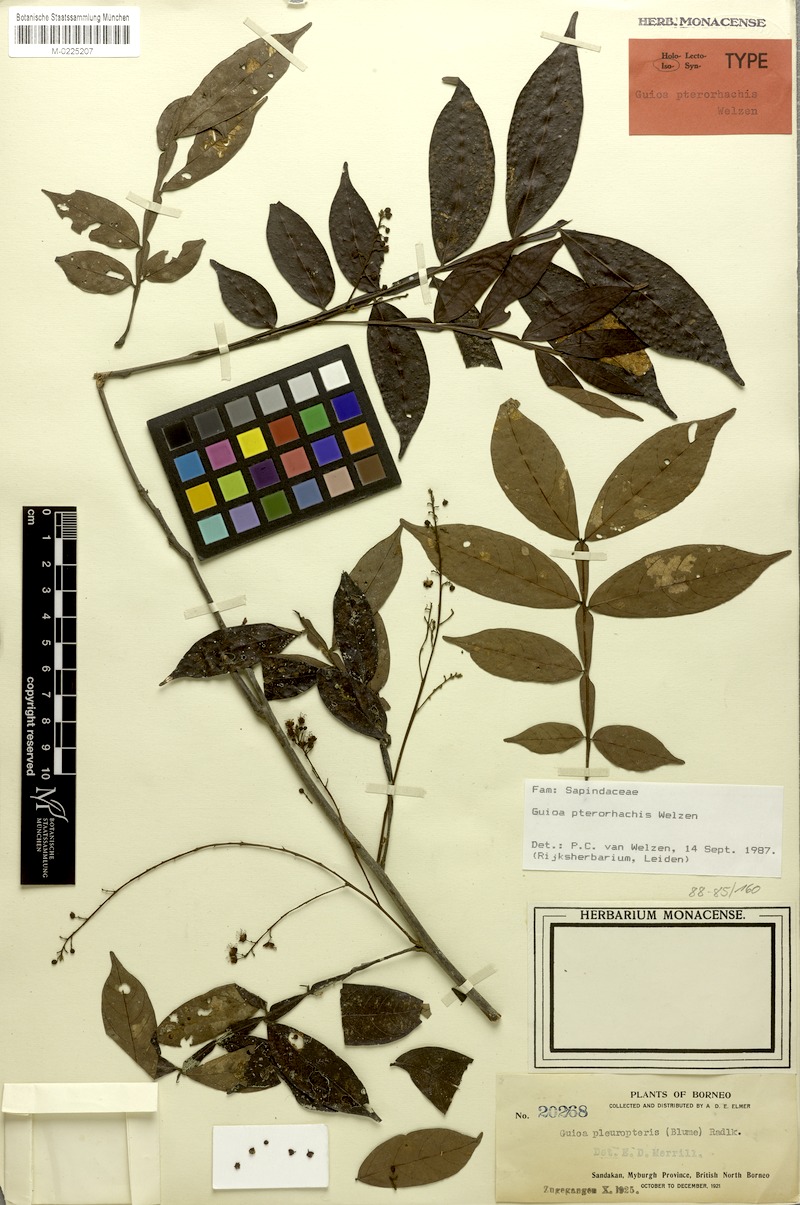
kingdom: Plantae
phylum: Tracheophyta
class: Magnoliopsida
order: Sapindales
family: Sapindaceae
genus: Guioa
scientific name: Guioa pterorhachis
